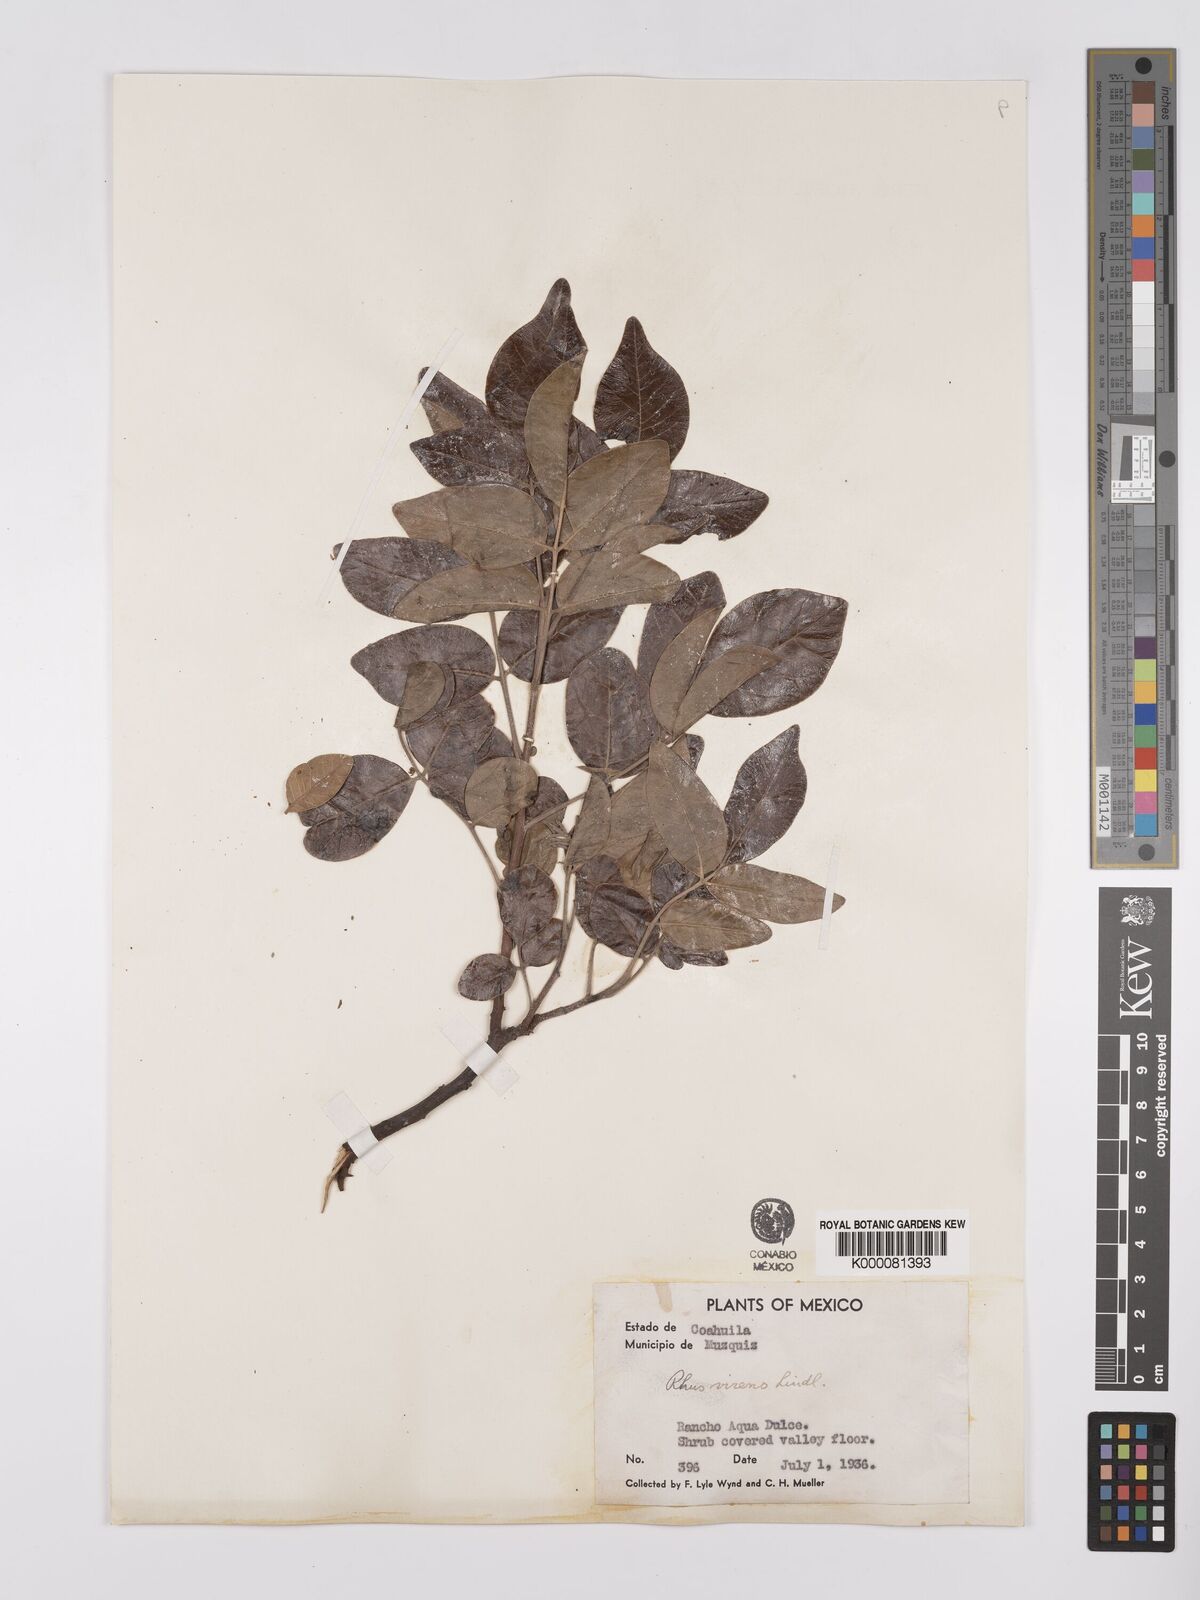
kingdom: Plantae
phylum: Tracheophyta
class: Magnoliopsida
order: Sapindales
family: Anacardiaceae
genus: Rhus
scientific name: Rhus virens
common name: Evergreen sumac
